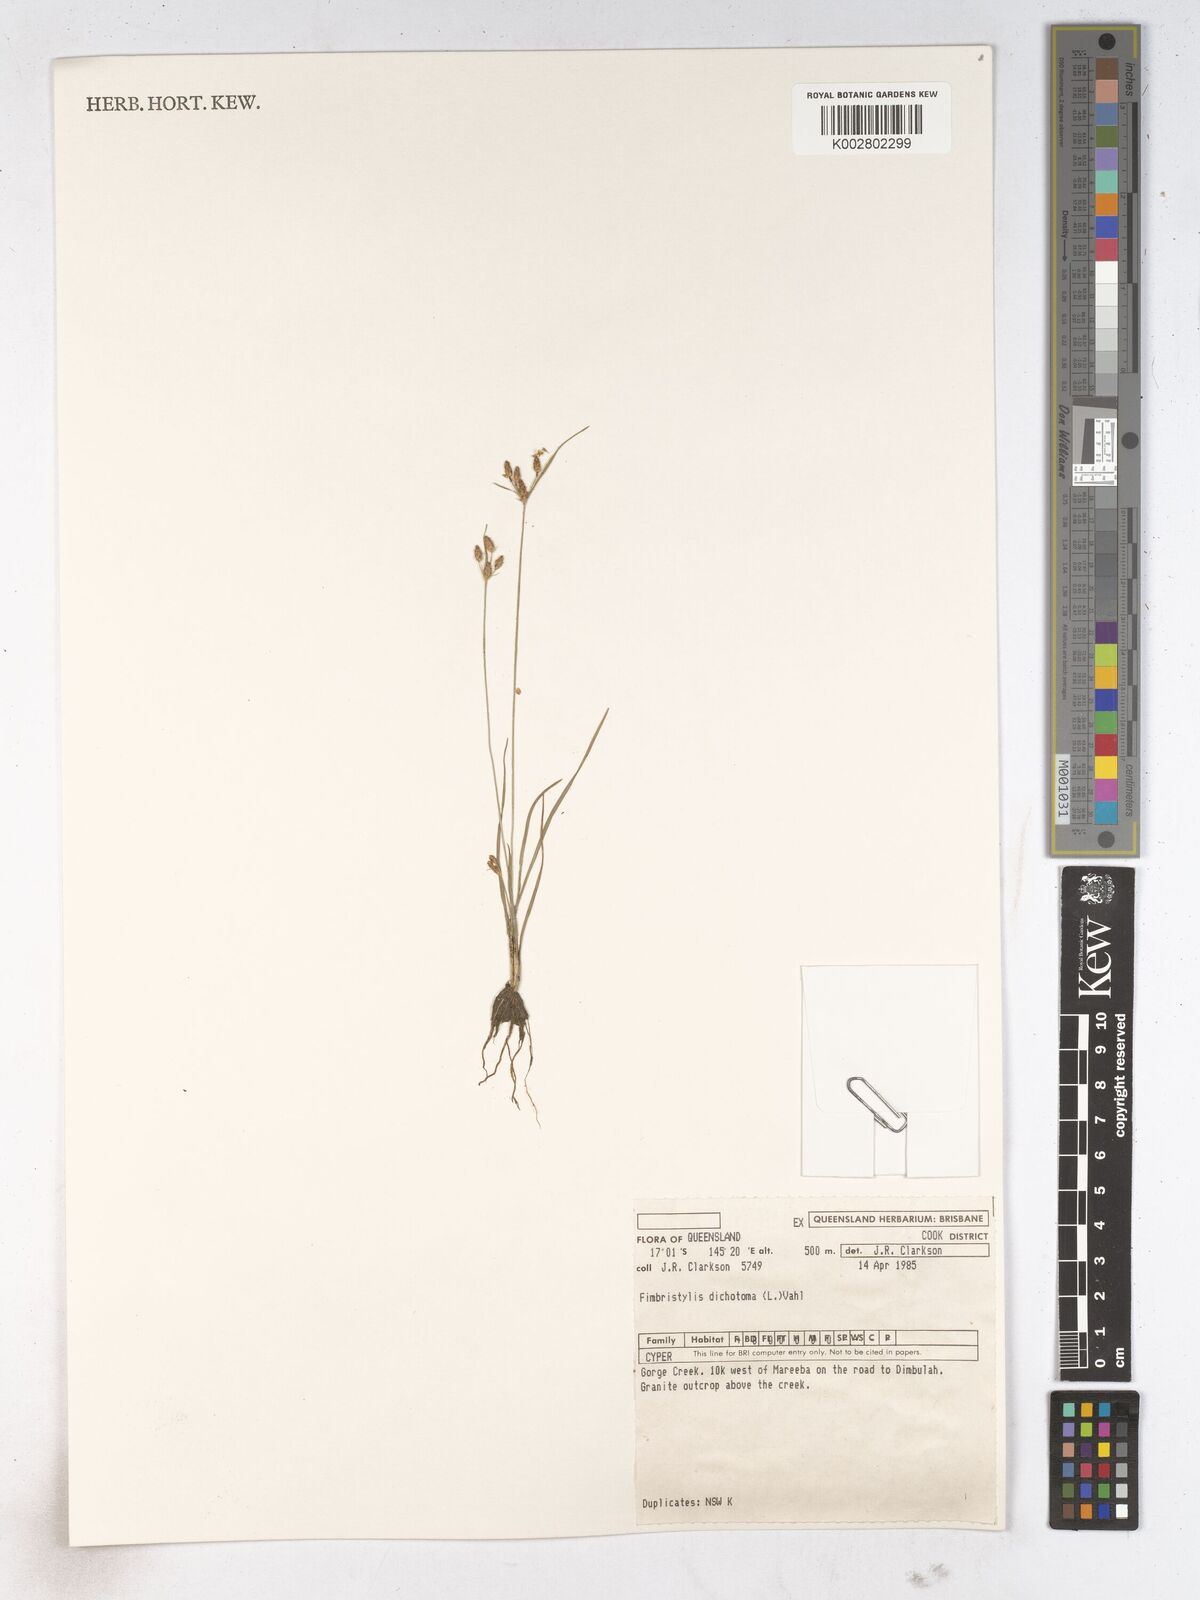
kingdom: Plantae
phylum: Tracheophyta
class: Liliopsida
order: Poales
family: Cyperaceae
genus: Fimbristylis
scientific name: Fimbristylis dichotoma
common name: Forked fimbry
